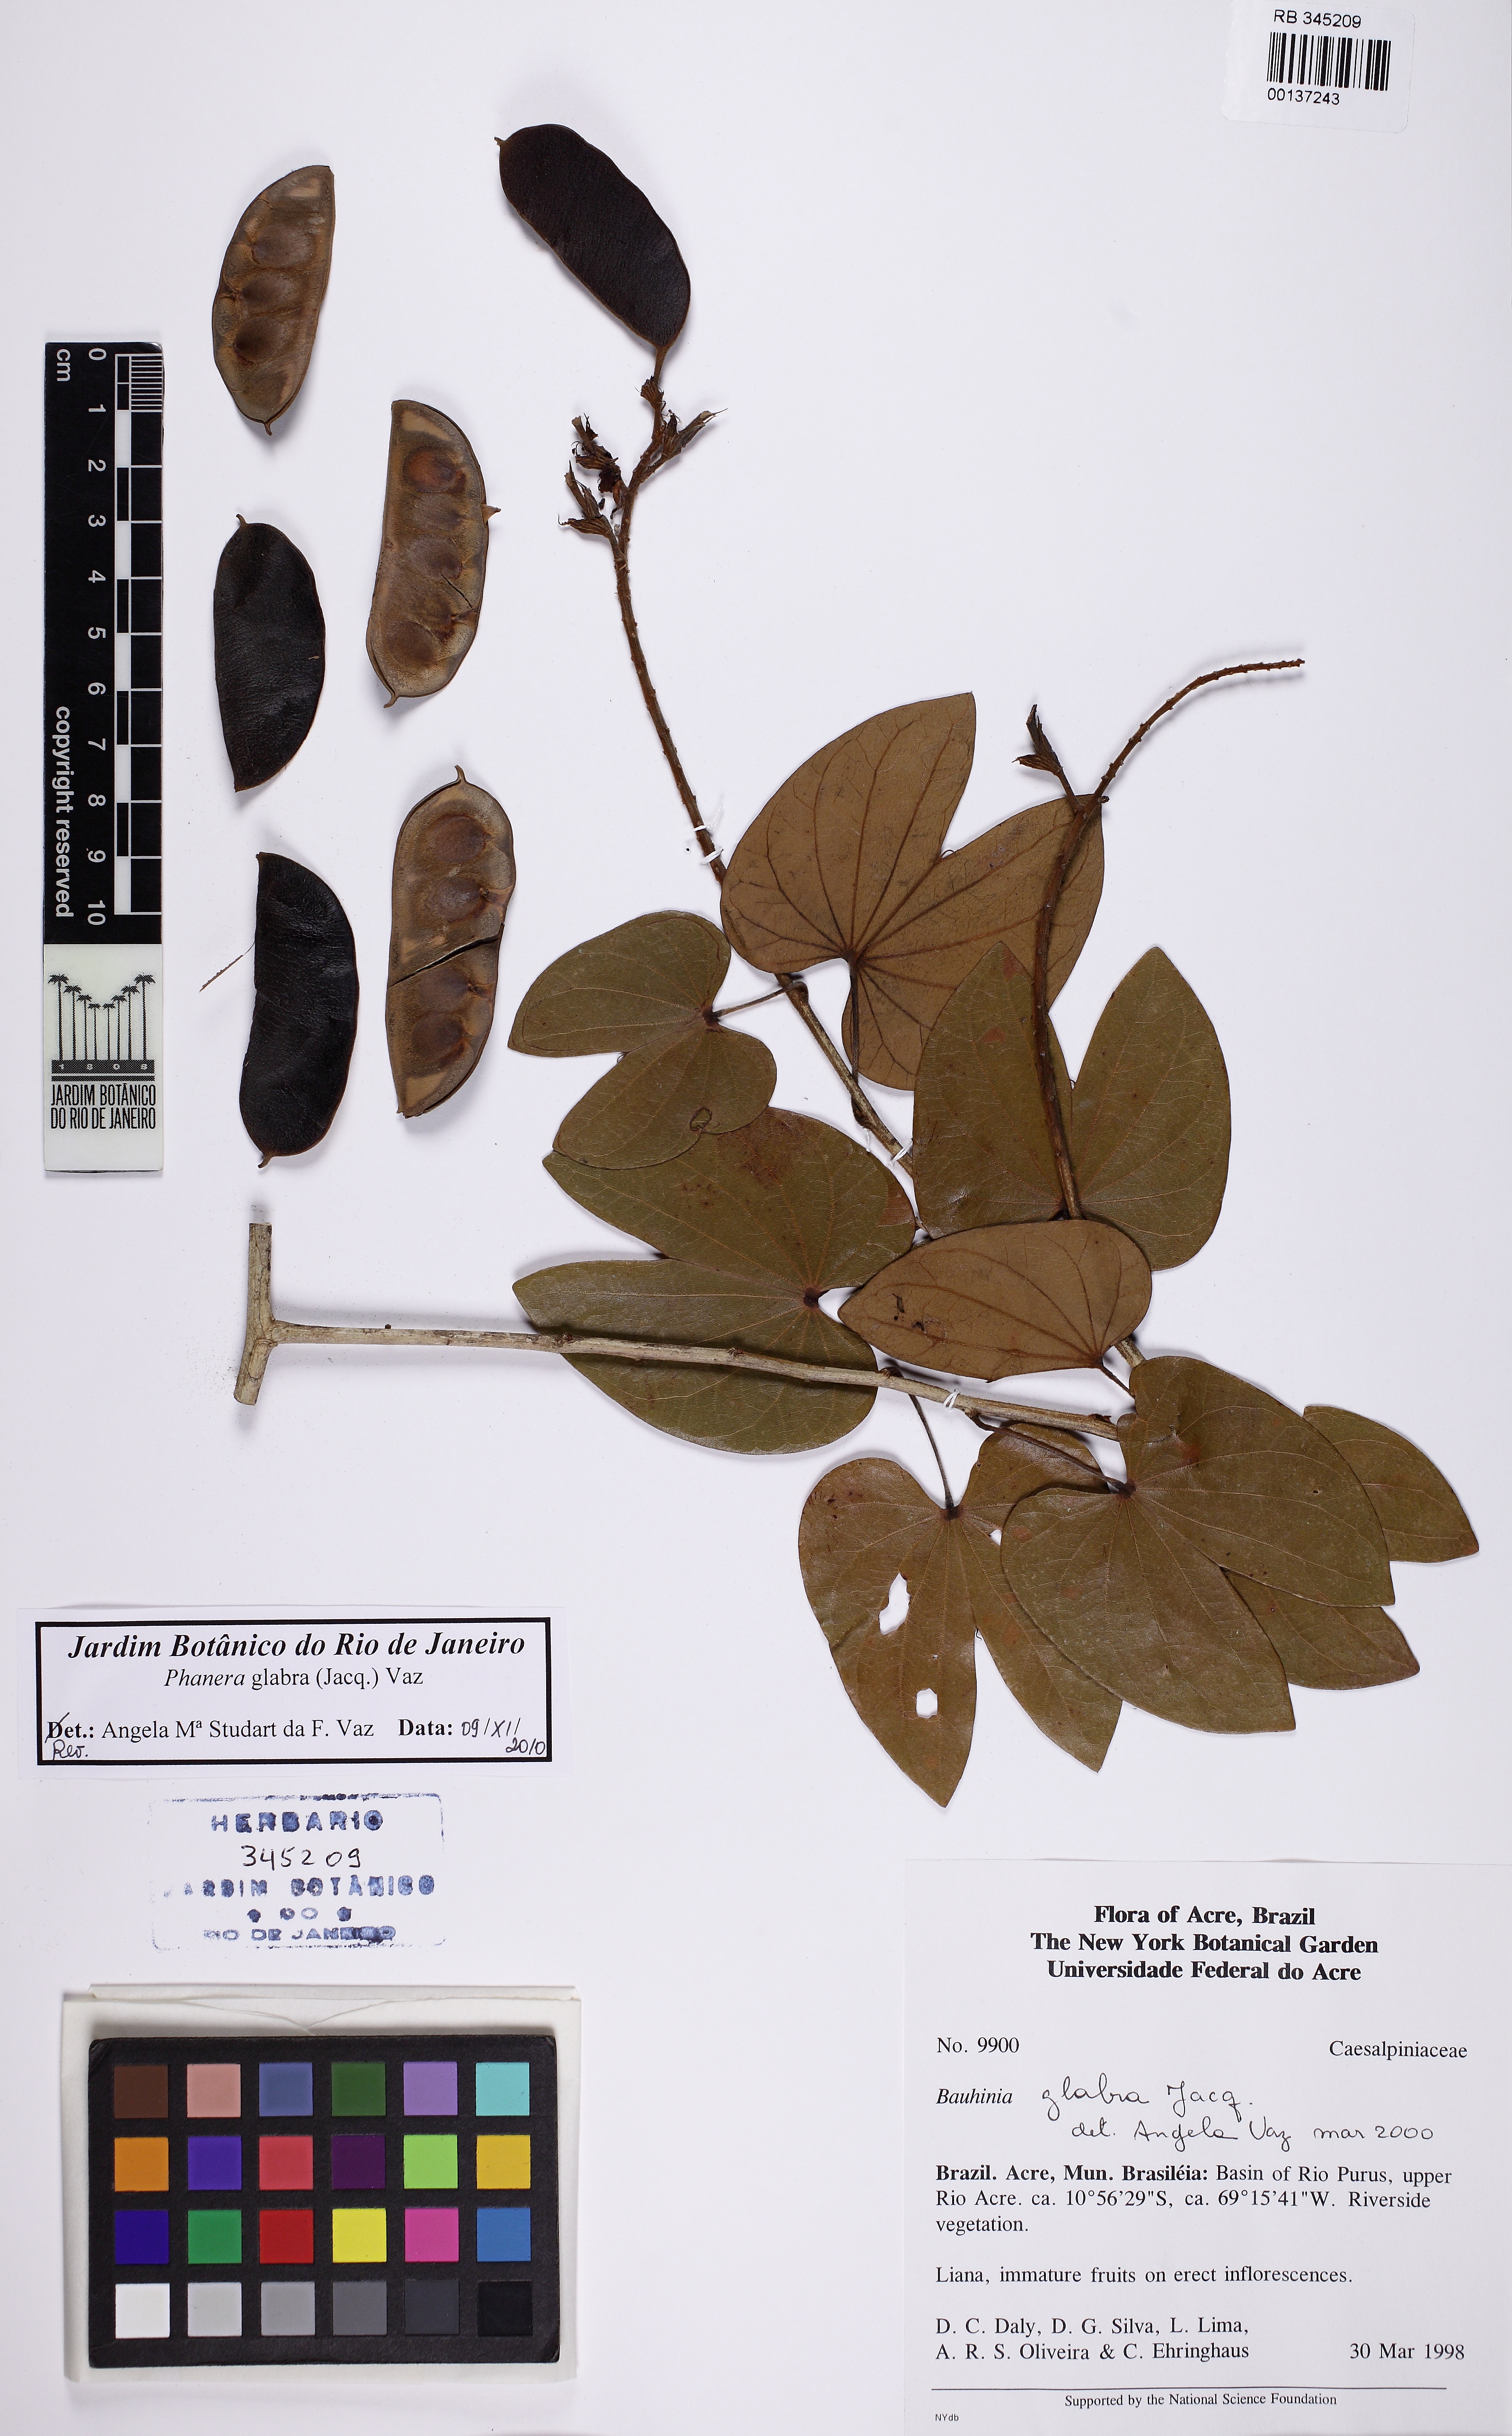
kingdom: Plantae
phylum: Tracheophyta
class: Magnoliopsida
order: Fabales
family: Fabaceae
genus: Schnella
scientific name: Schnella glabra
